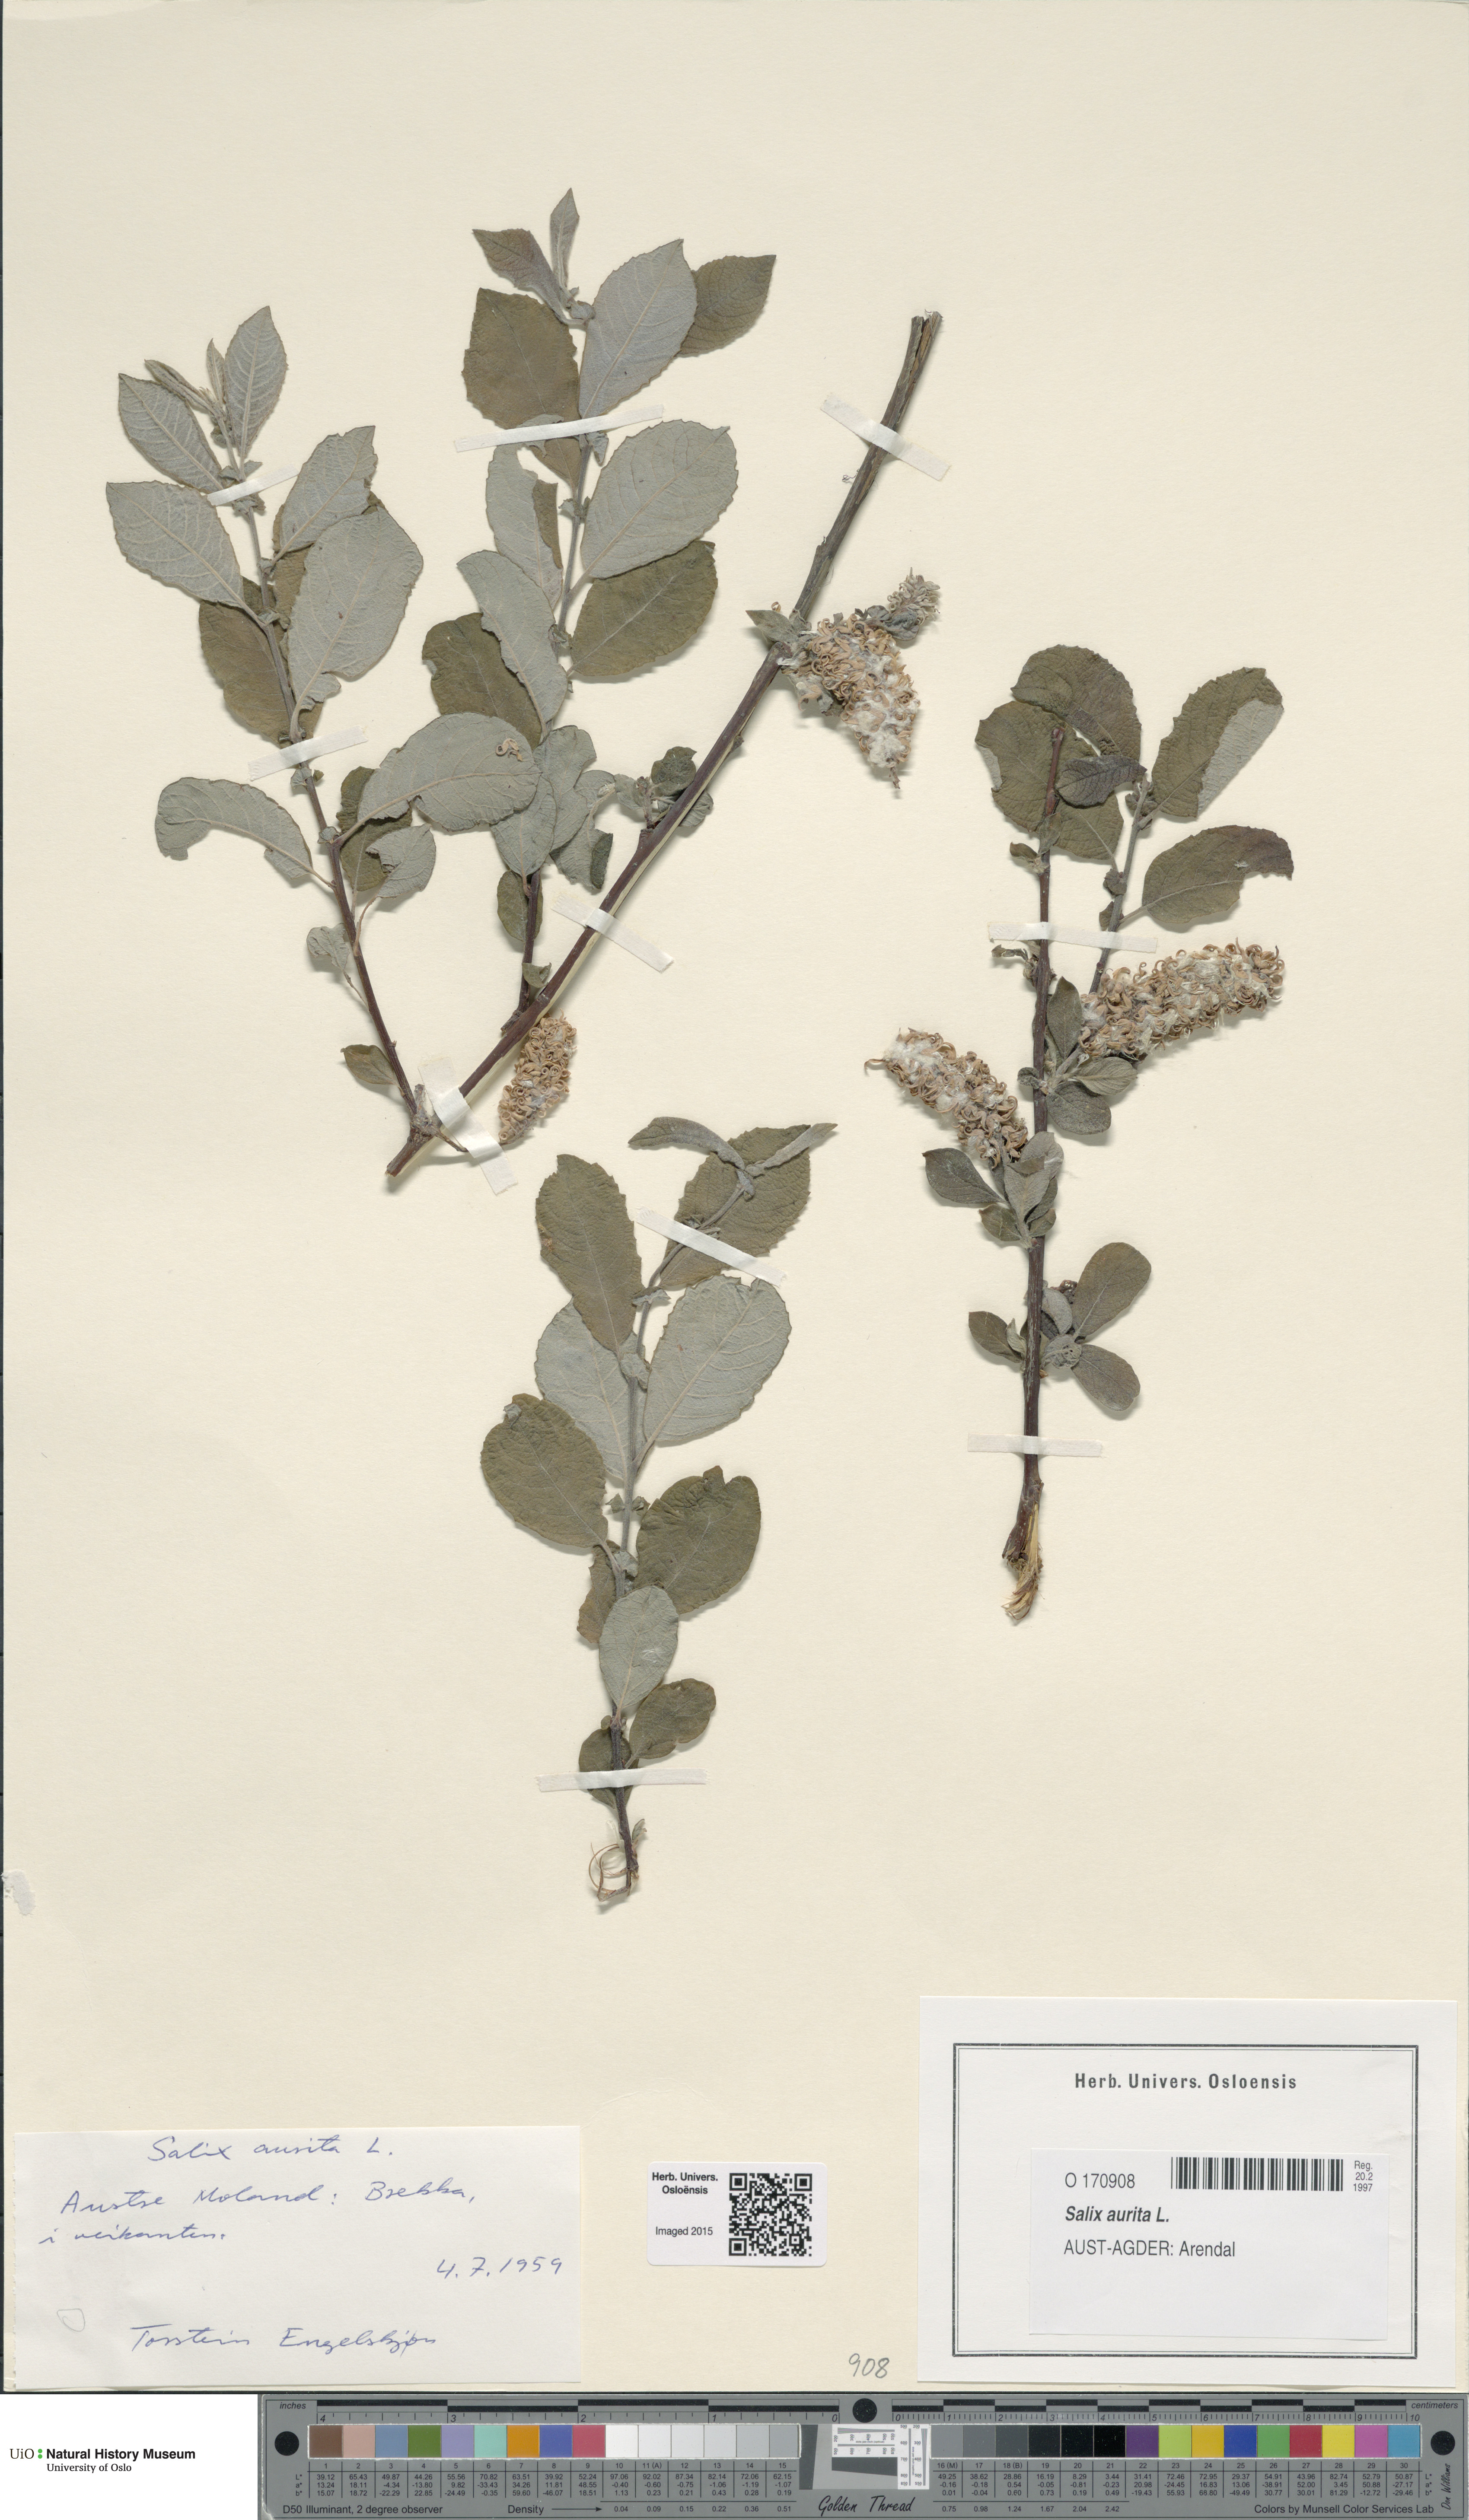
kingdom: Plantae
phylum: Tracheophyta
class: Magnoliopsida
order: Malpighiales
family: Salicaceae
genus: Salix
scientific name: Salix aurita
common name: Eared willow
